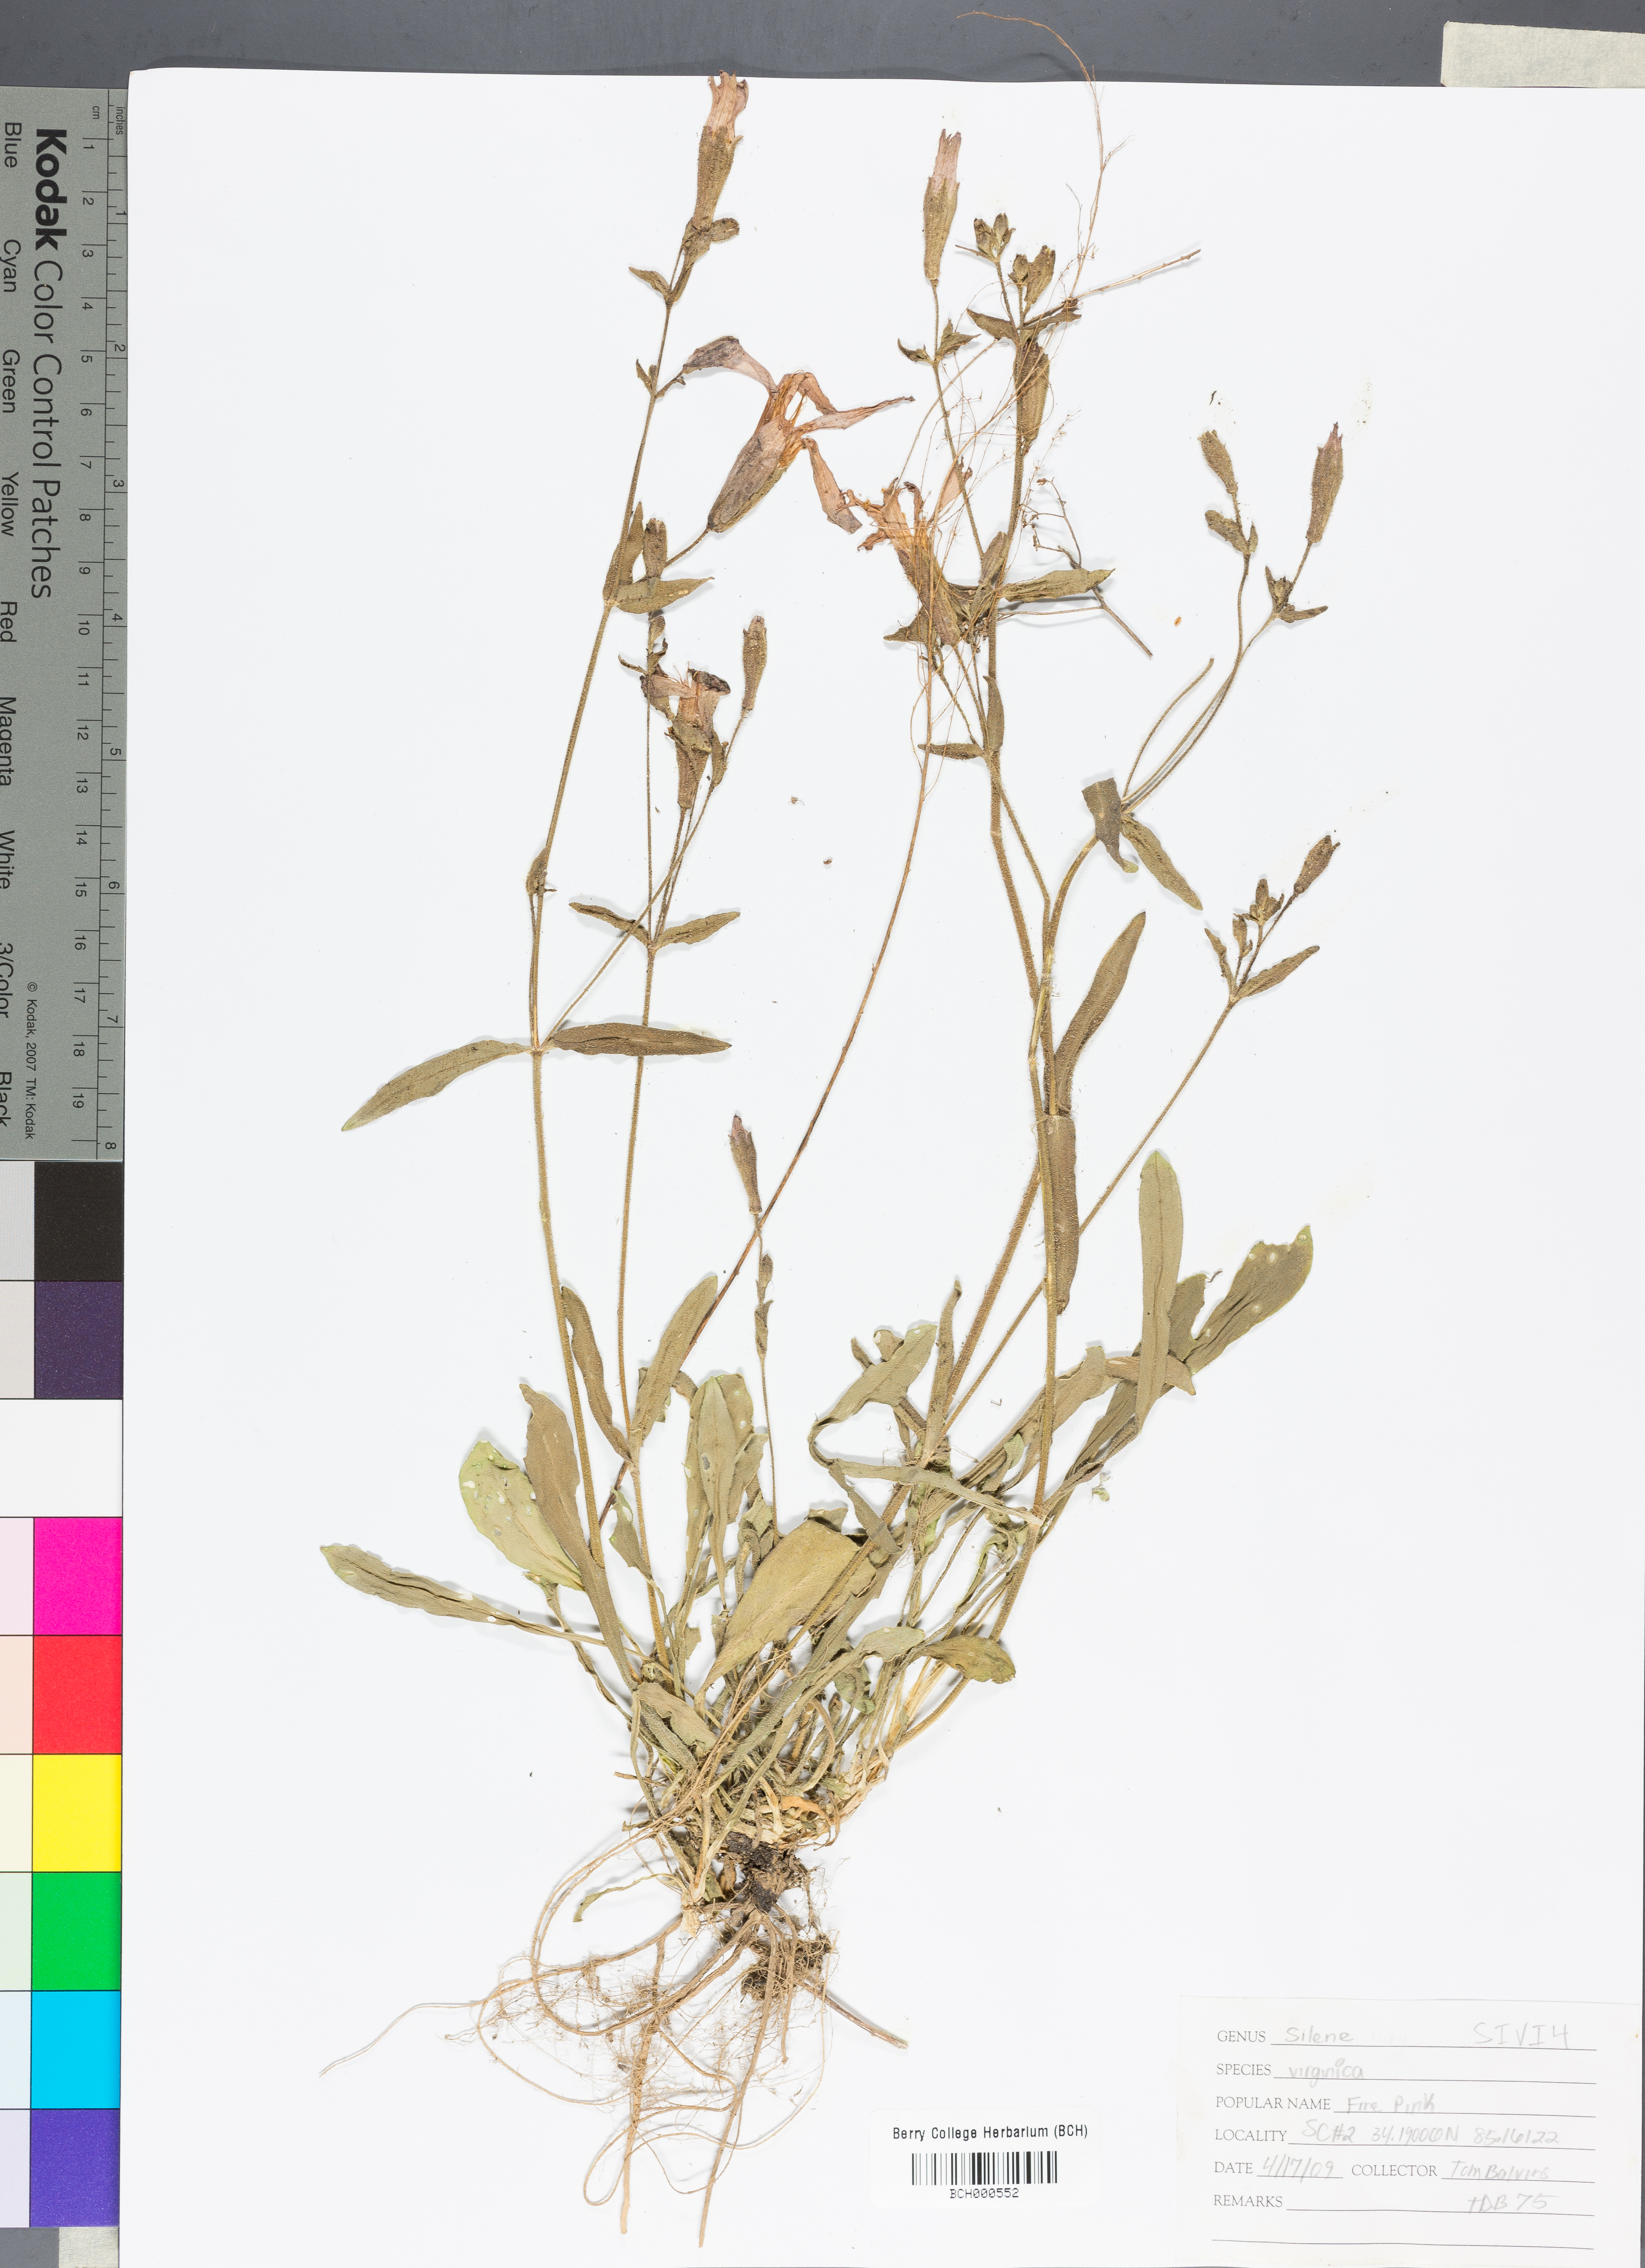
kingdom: Plantae
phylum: Tracheophyta
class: Magnoliopsida
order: Caryophyllales
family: Caryophyllaceae
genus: Silene
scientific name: Silene virginica
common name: Fire-pink
